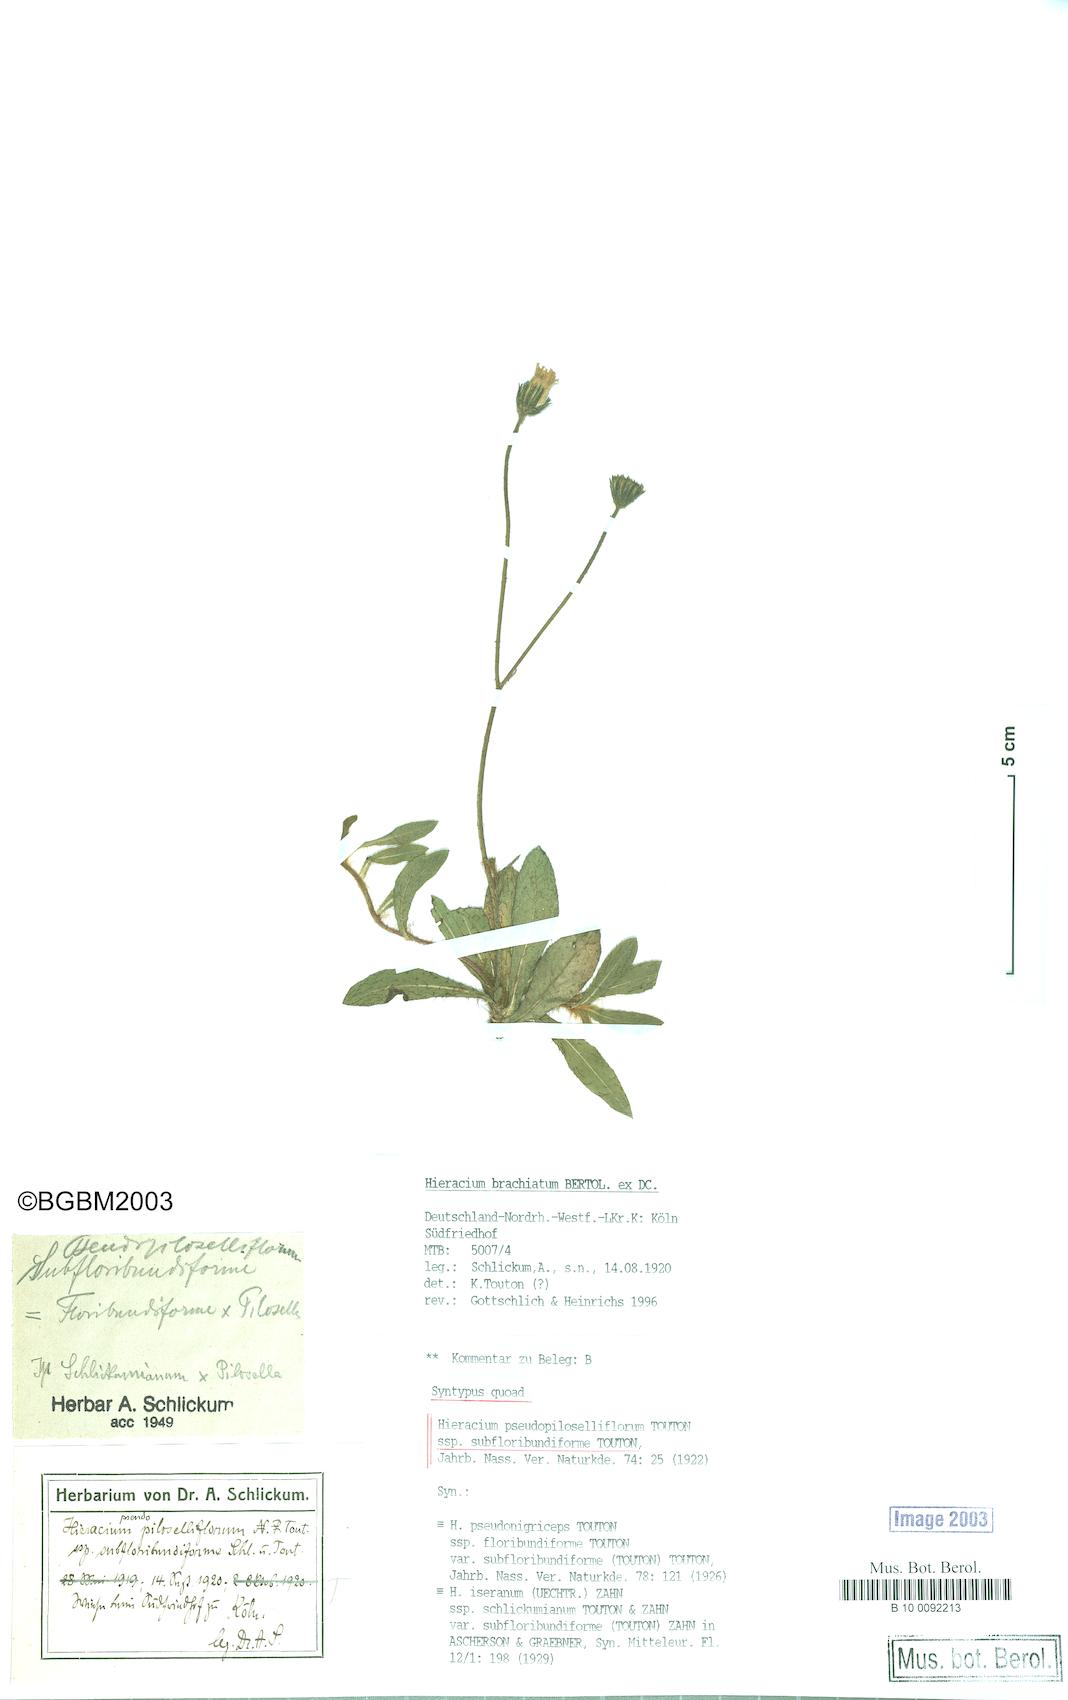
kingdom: Plantae
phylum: Tracheophyta
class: Magnoliopsida
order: Asterales
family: Asteraceae
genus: Pilosella
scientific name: Pilosella piloselliflora
